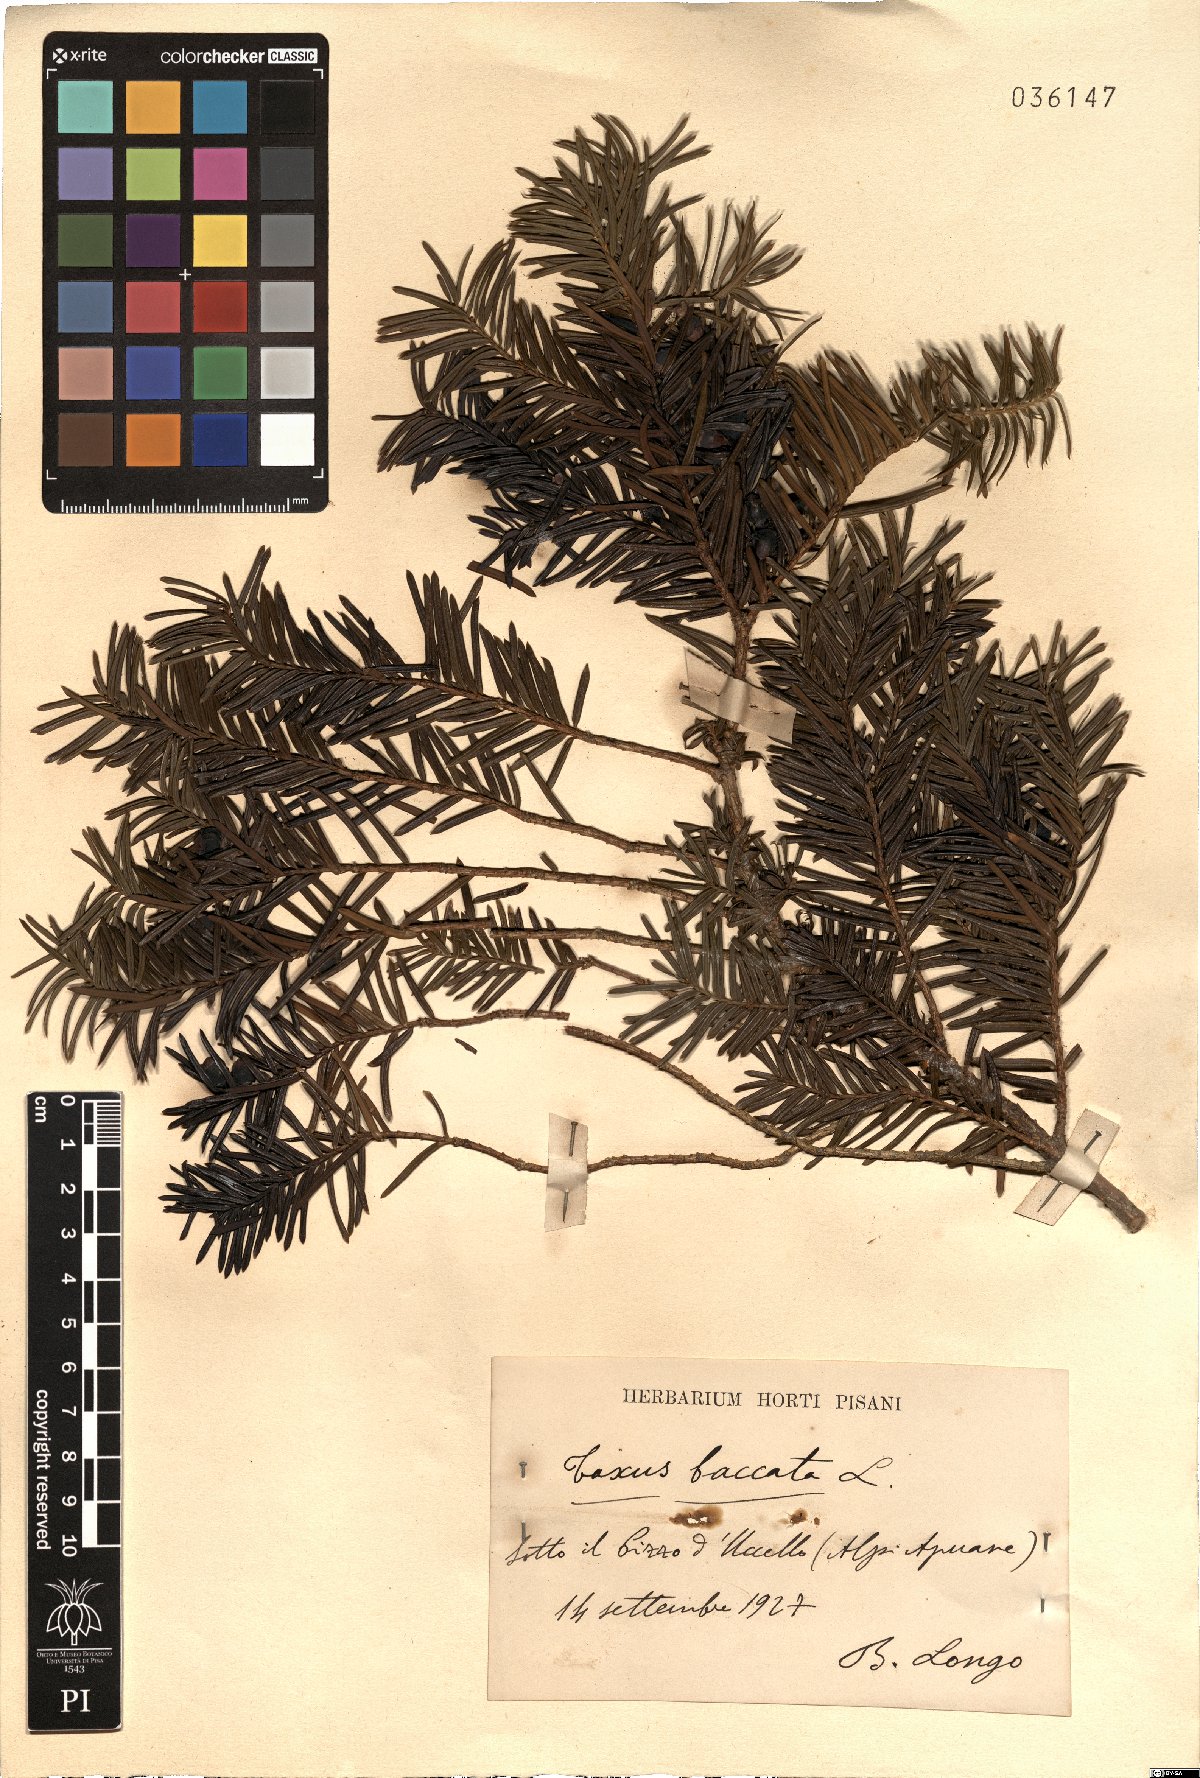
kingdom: Plantae
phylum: Tracheophyta
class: Pinopsida
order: Pinales
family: Taxaceae
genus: Taxus
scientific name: Taxus baccata
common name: Yew
